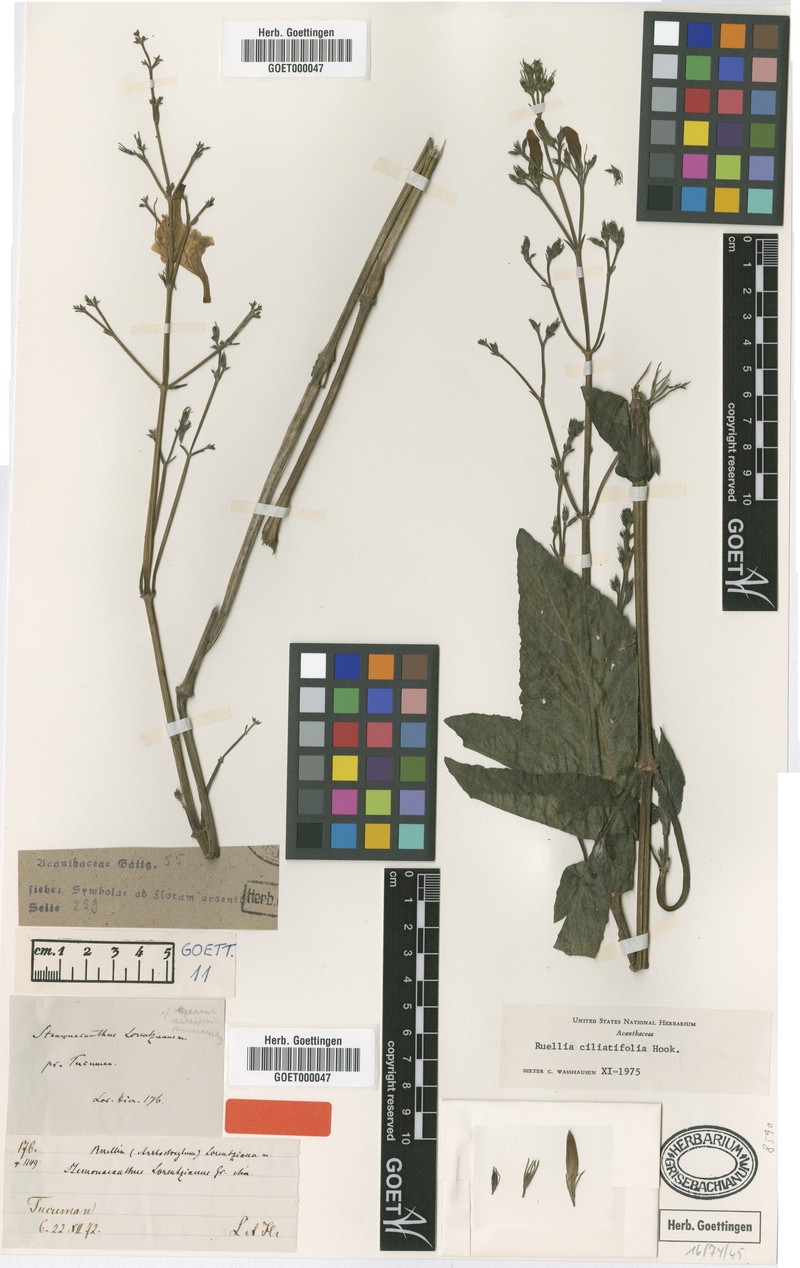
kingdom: Plantae
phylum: Tracheophyta
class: Magnoliopsida
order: Lamiales
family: Acanthaceae
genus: Ruellia
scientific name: Ruellia ciliatiflora
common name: Hairyflower wild petunia
